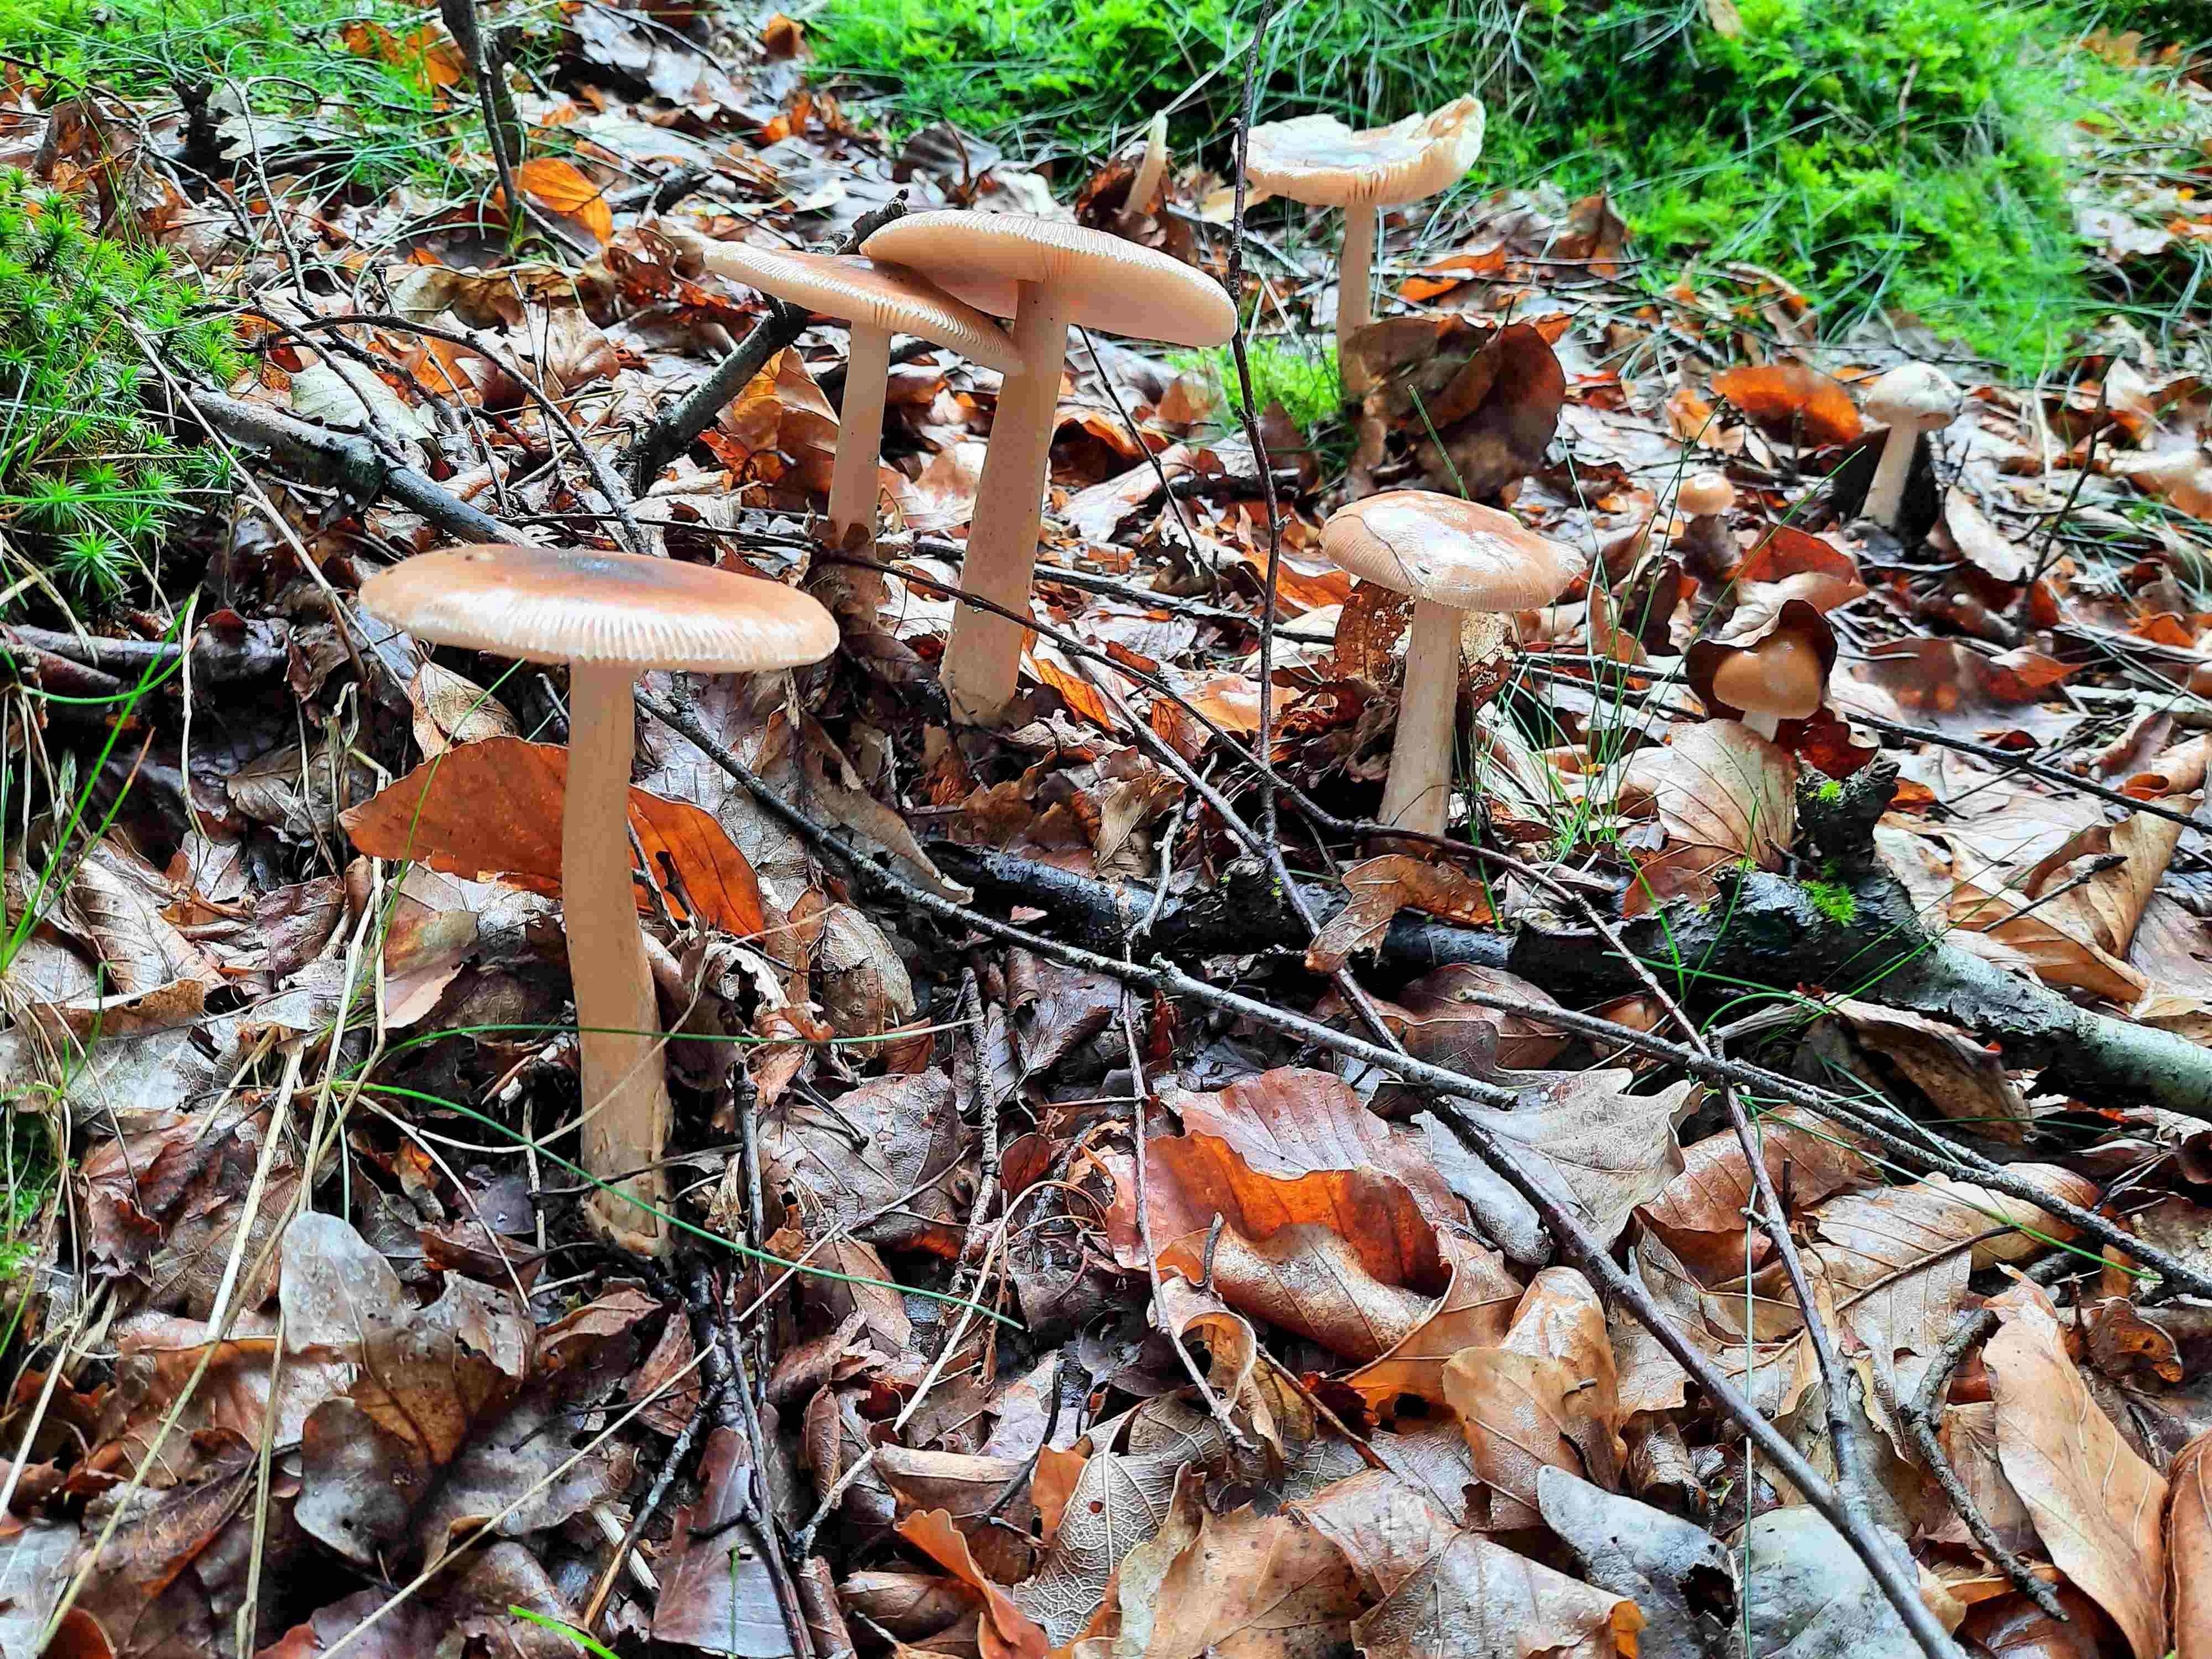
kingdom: Fungi
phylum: Basidiomycota
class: Agaricomycetes
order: Agaricales
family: Amanitaceae
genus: Amanita
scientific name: Amanita fulva
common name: brun kam-fluesvamp
